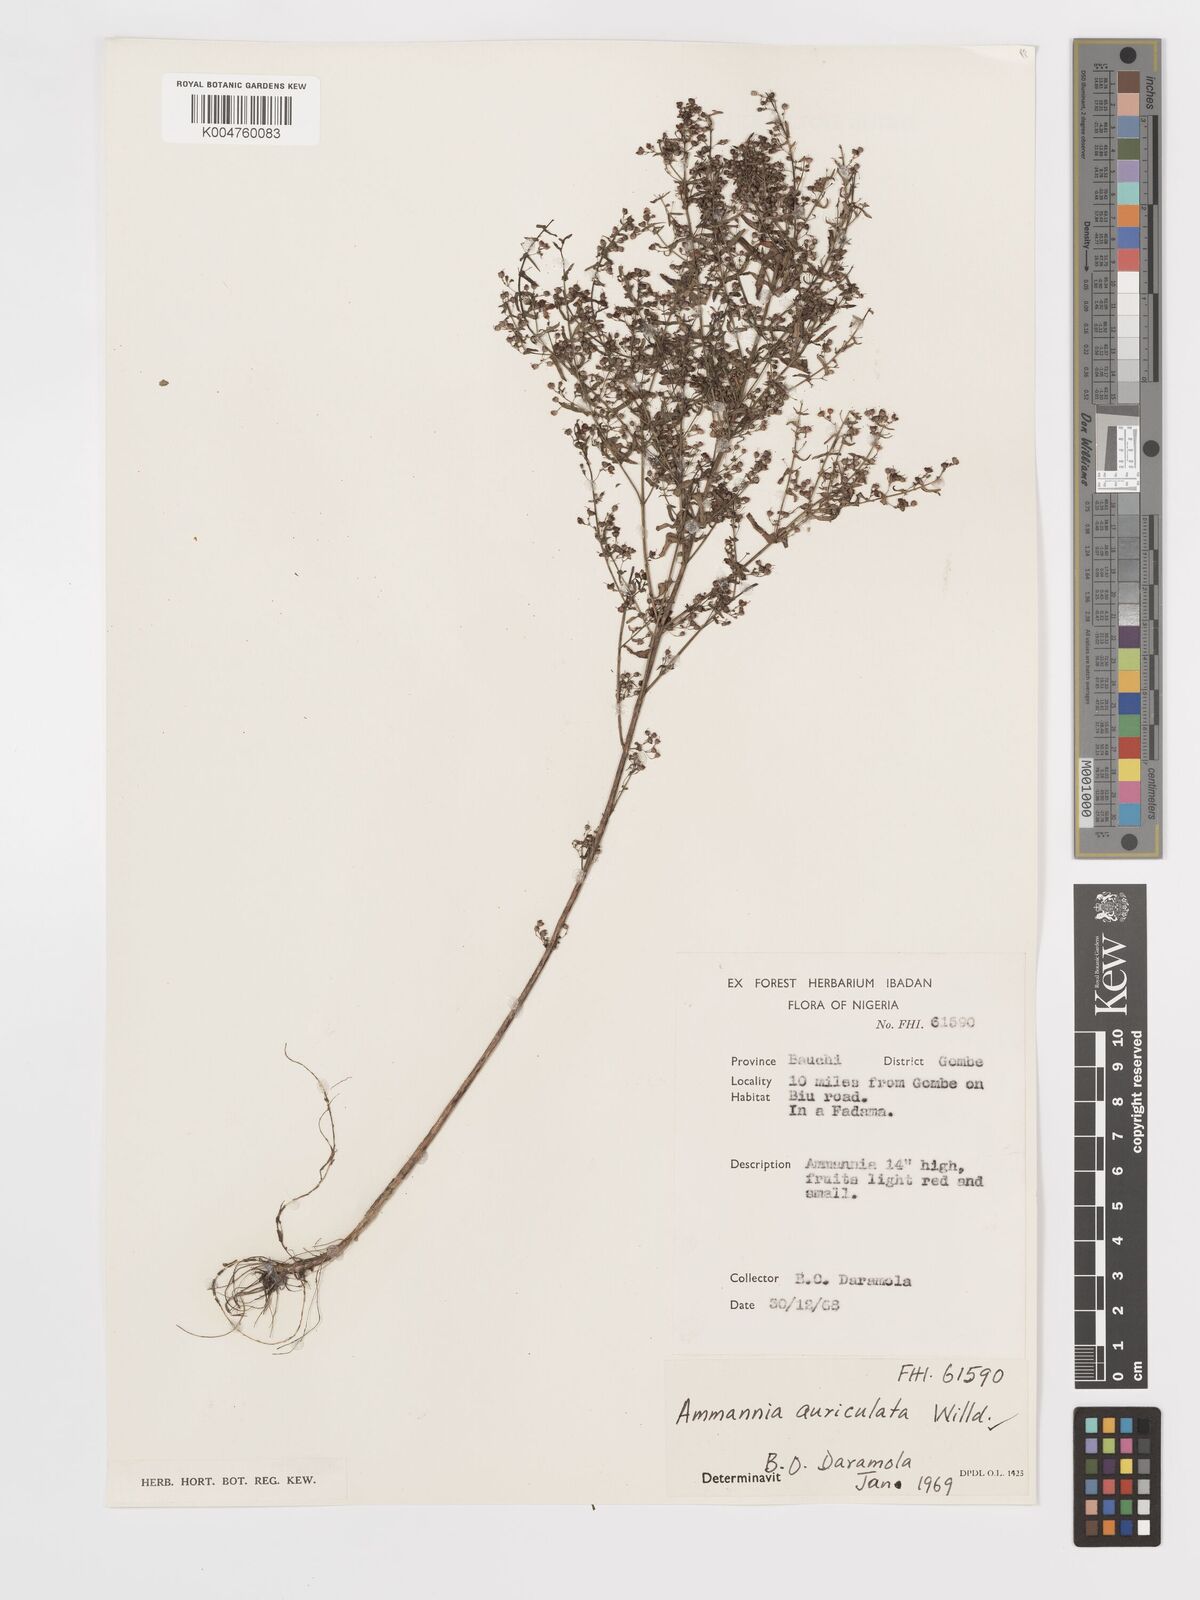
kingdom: Plantae
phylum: Tracheophyta
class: Magnoliopsida
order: Myrtales
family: Lythraceae
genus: Ammannia
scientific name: Ammannia auriculata
